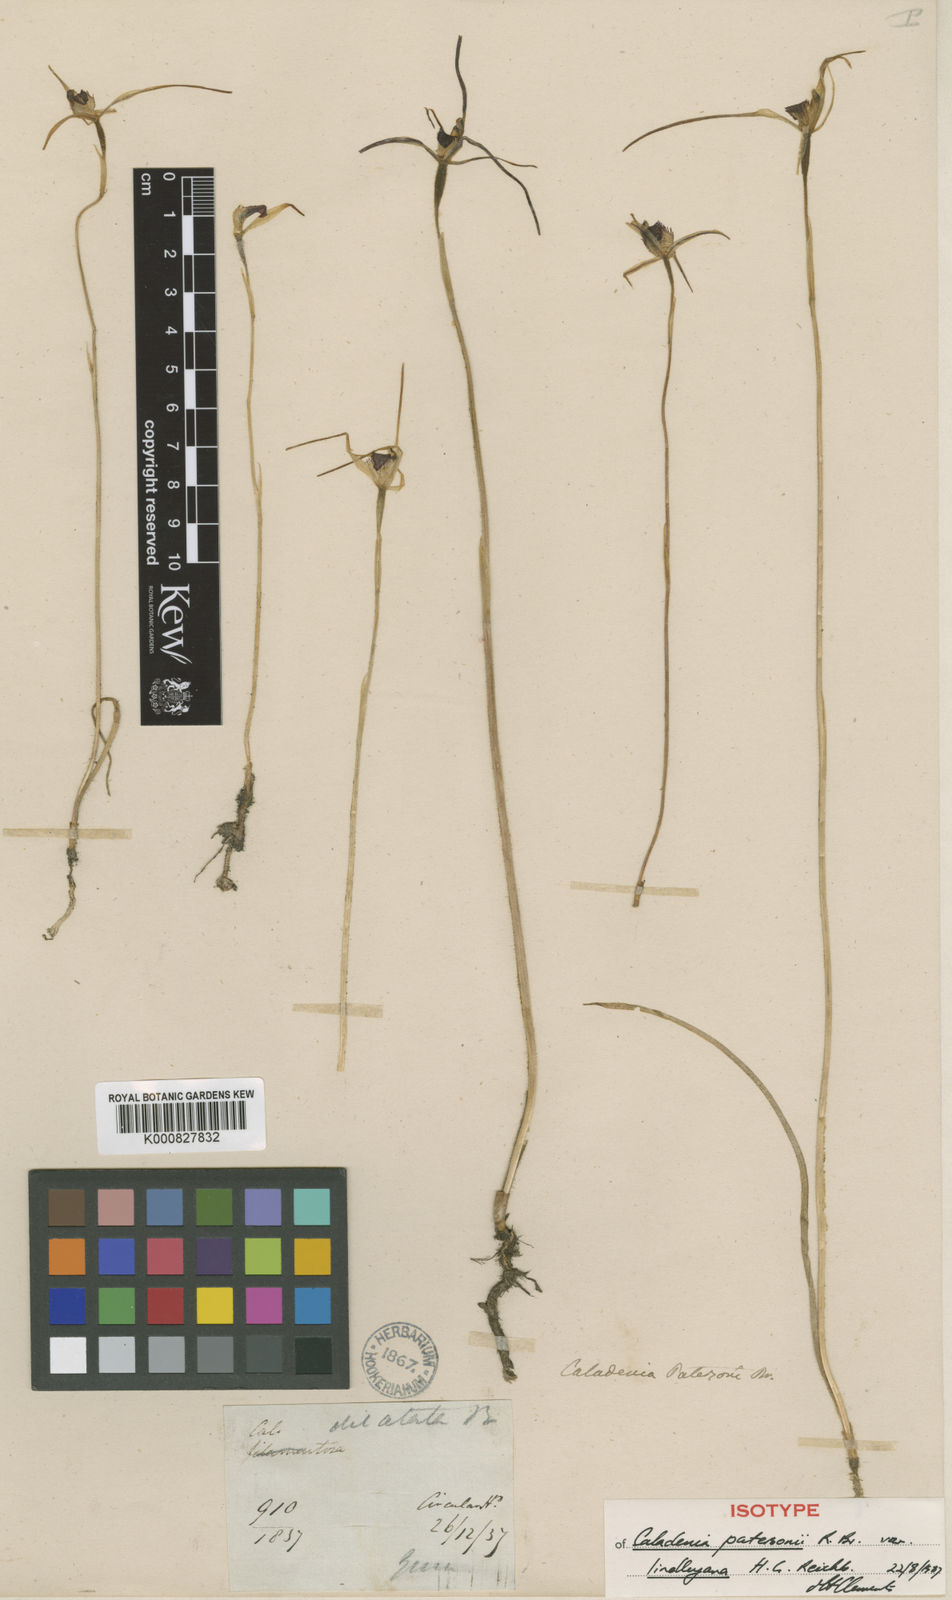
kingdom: Plantae
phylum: Tracheophyta
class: Liliopsida
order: Asparagales
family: Orchidaceae
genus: Caladenia
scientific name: Caladenia lindleyana
